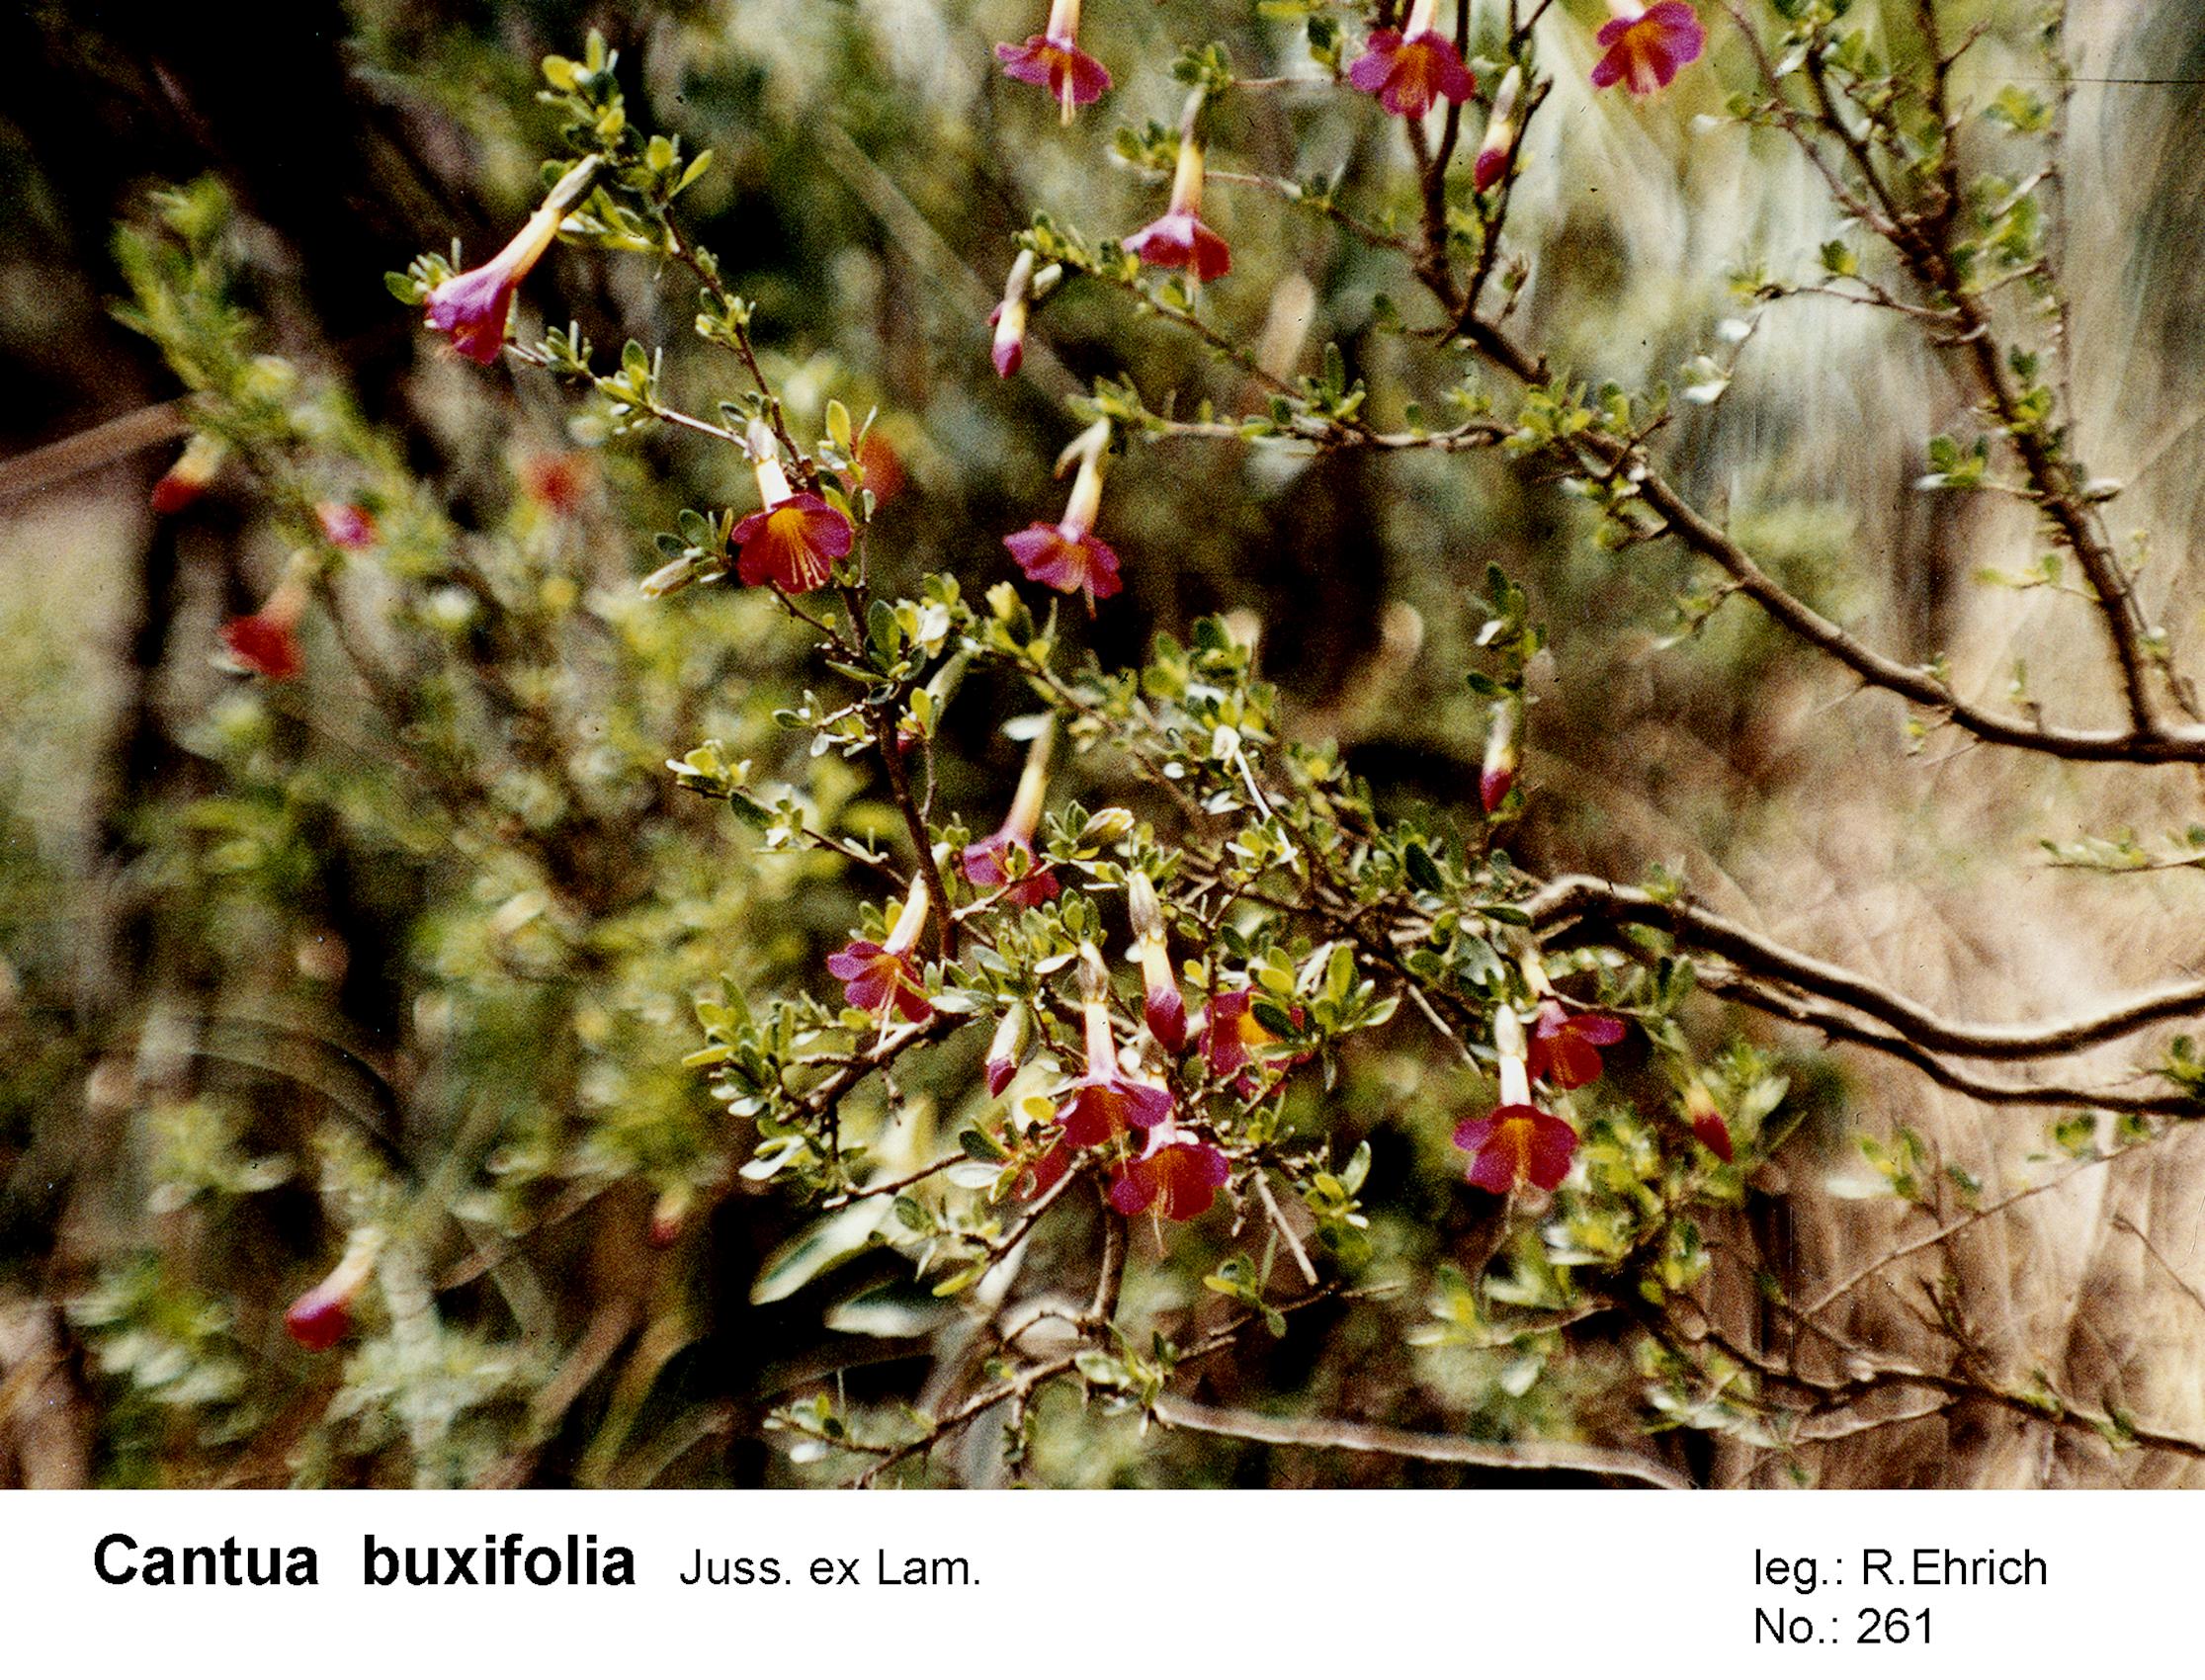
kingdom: Plantae
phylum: Tracheophyta
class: Magnoliopsida
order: Ericales
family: Polemoniaceae
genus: Cantua
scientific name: Cantua buxifolia
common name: Sacred-flower-of-the-incas
